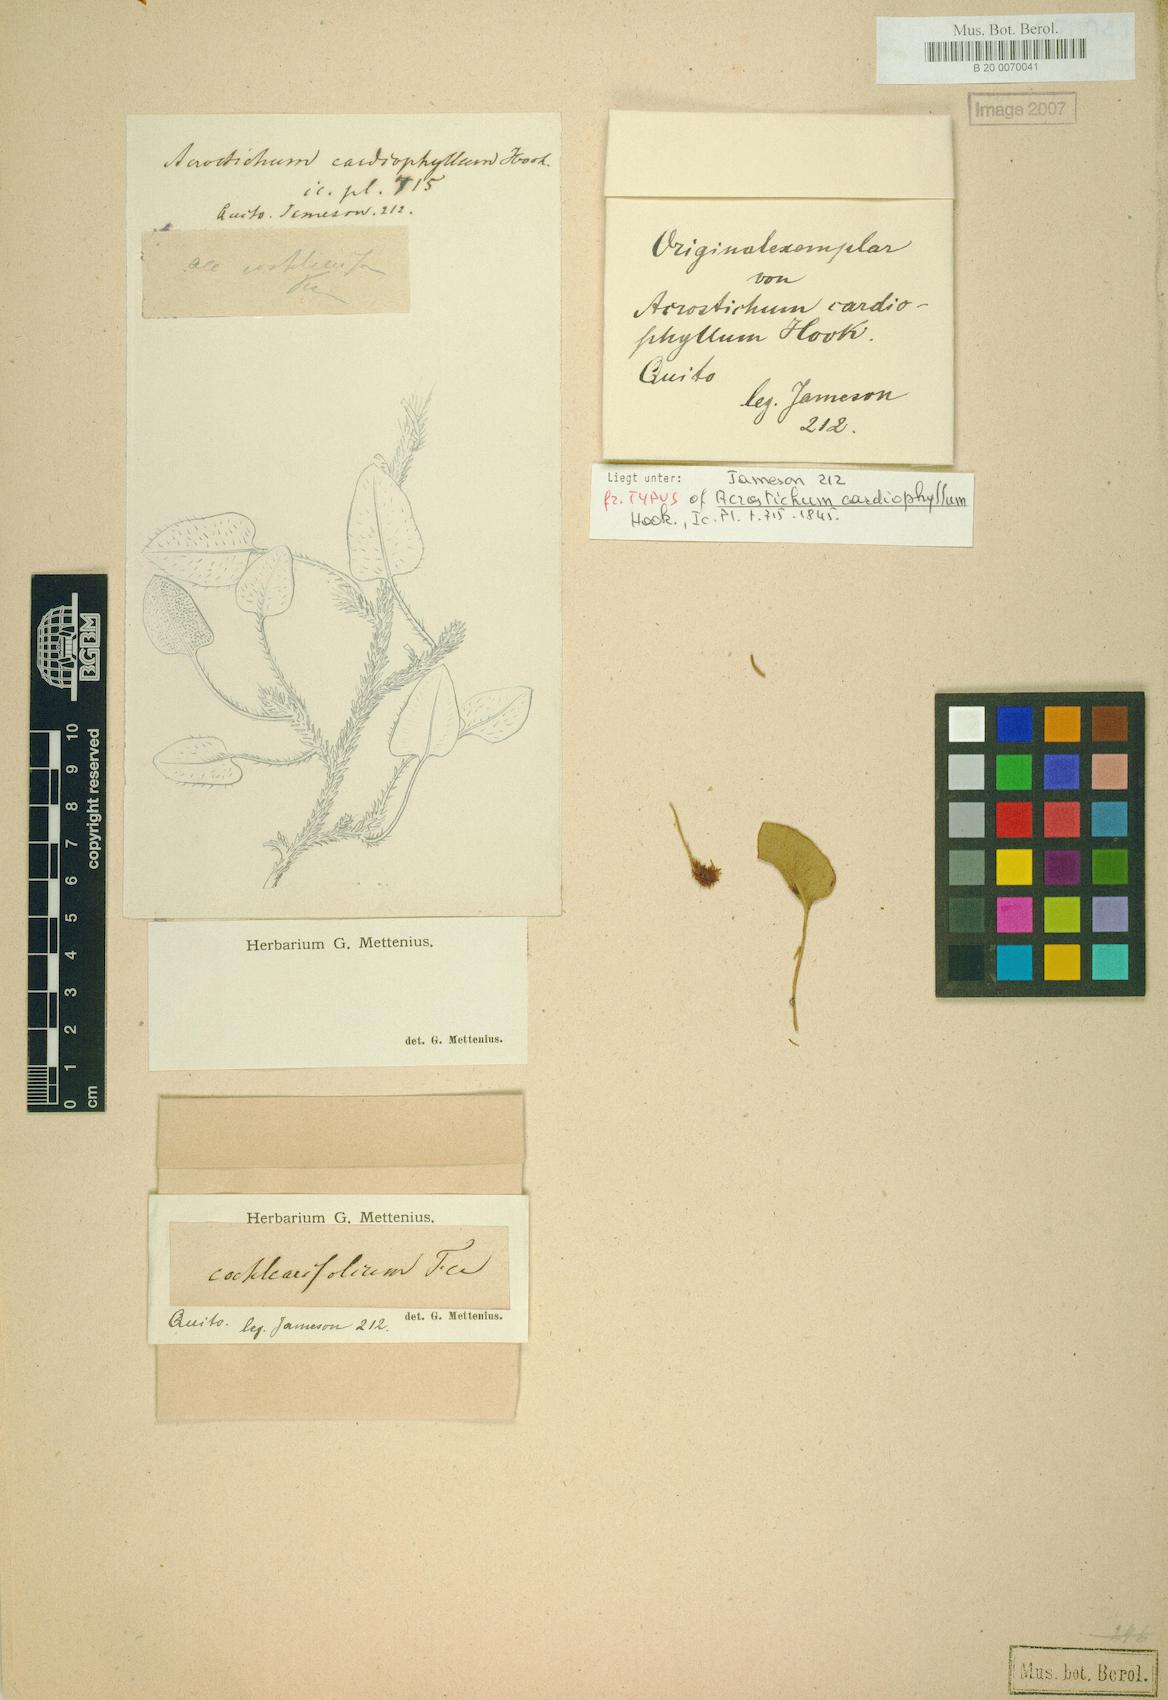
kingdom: Plantae
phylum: Tracheophyta
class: Polypodiopsida
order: Polypodiales
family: Dryopteridaceae
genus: Elaphoglossum
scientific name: Elaphoglossum cardiophyllum
